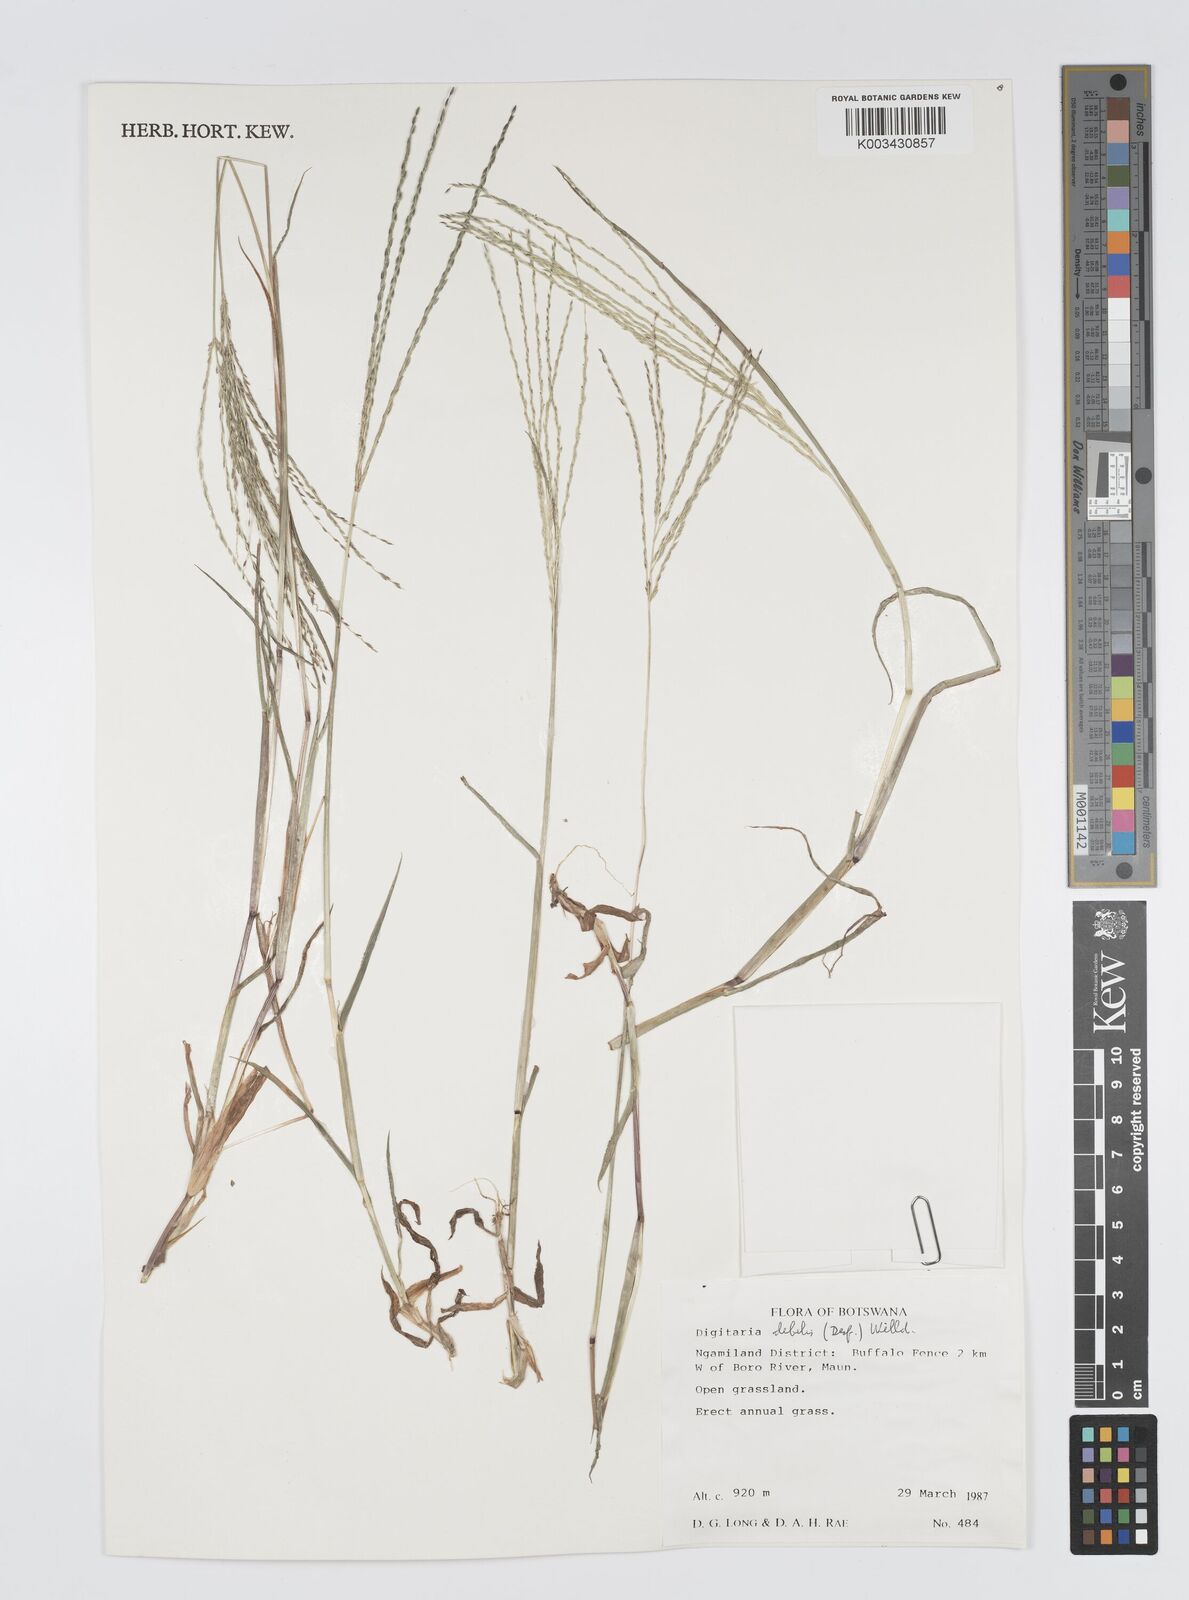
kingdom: Plantae
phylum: Tracheophyta
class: Liliopsida
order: Poales
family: Poaceae
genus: Digitaria
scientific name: Digitaria debilis
